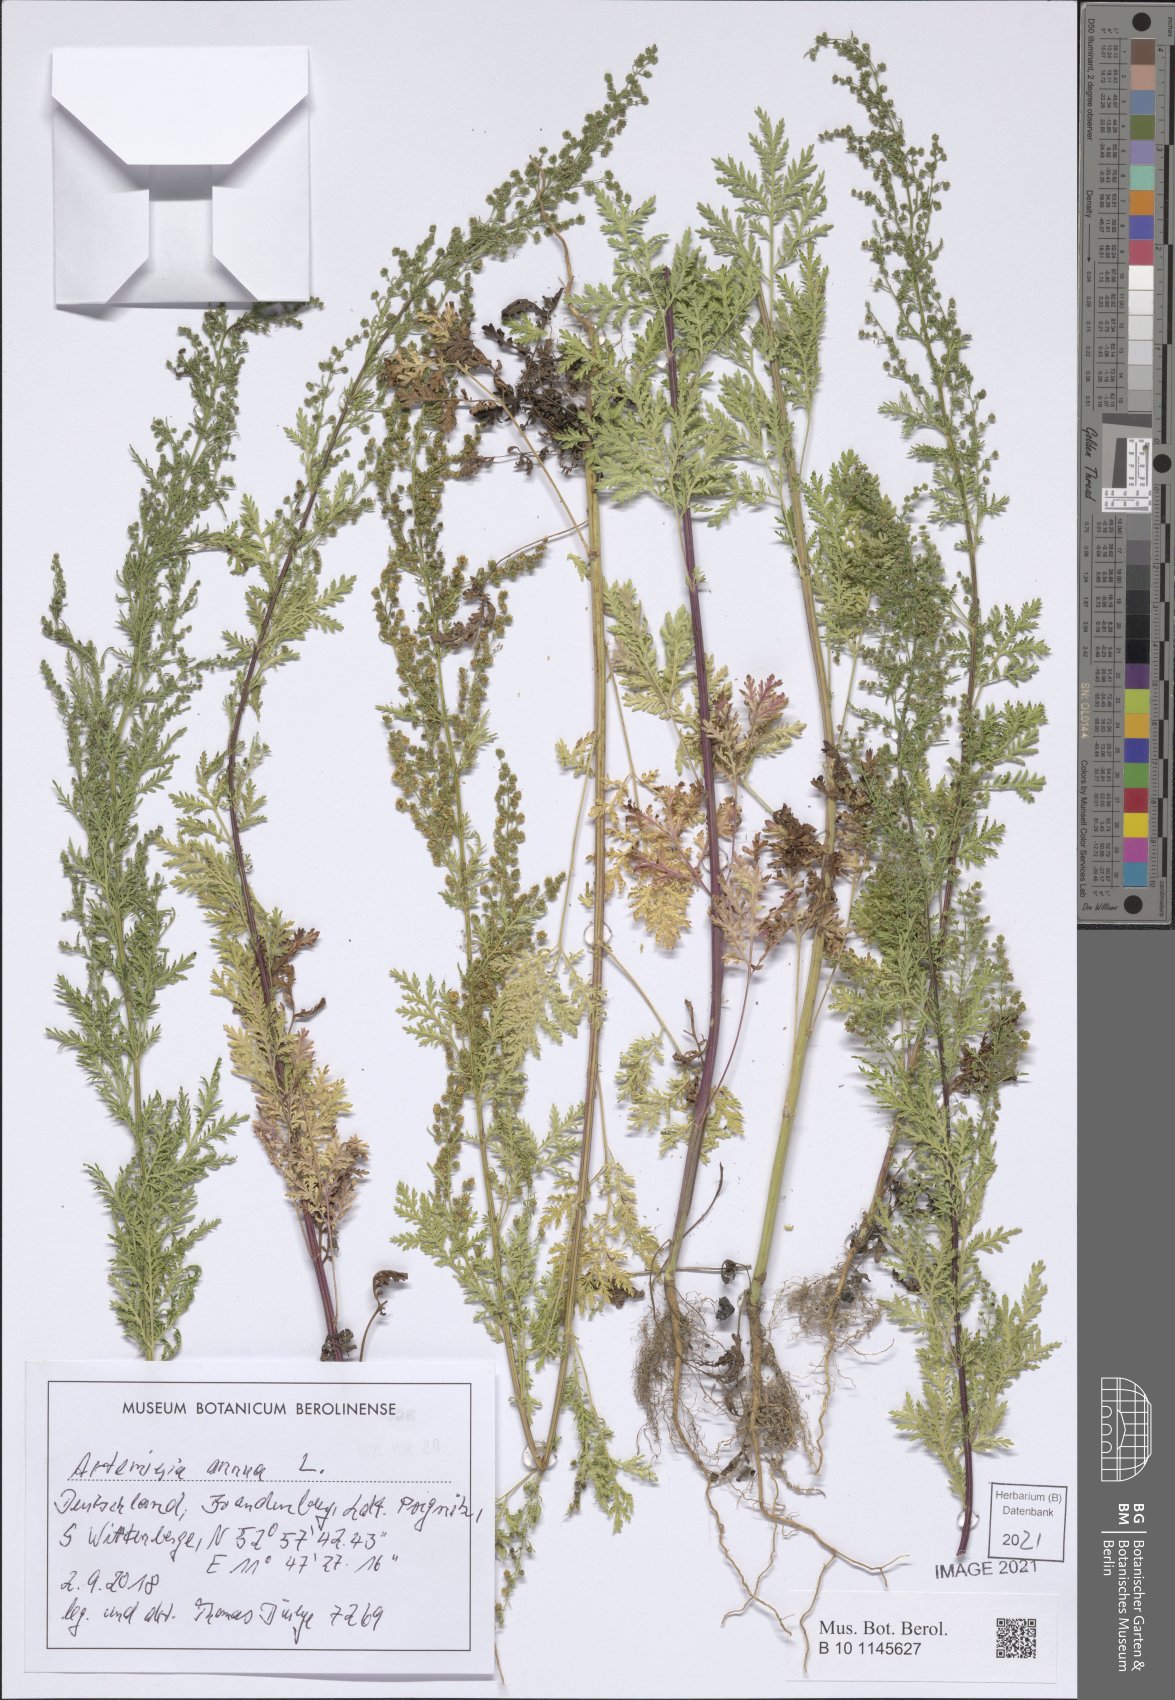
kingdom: Plantae
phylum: Tracheophyta
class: Magnoliopsida
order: Asterales
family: Asteraceae
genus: Artemisia
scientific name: Artemisia annua
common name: Sweet sagewort
